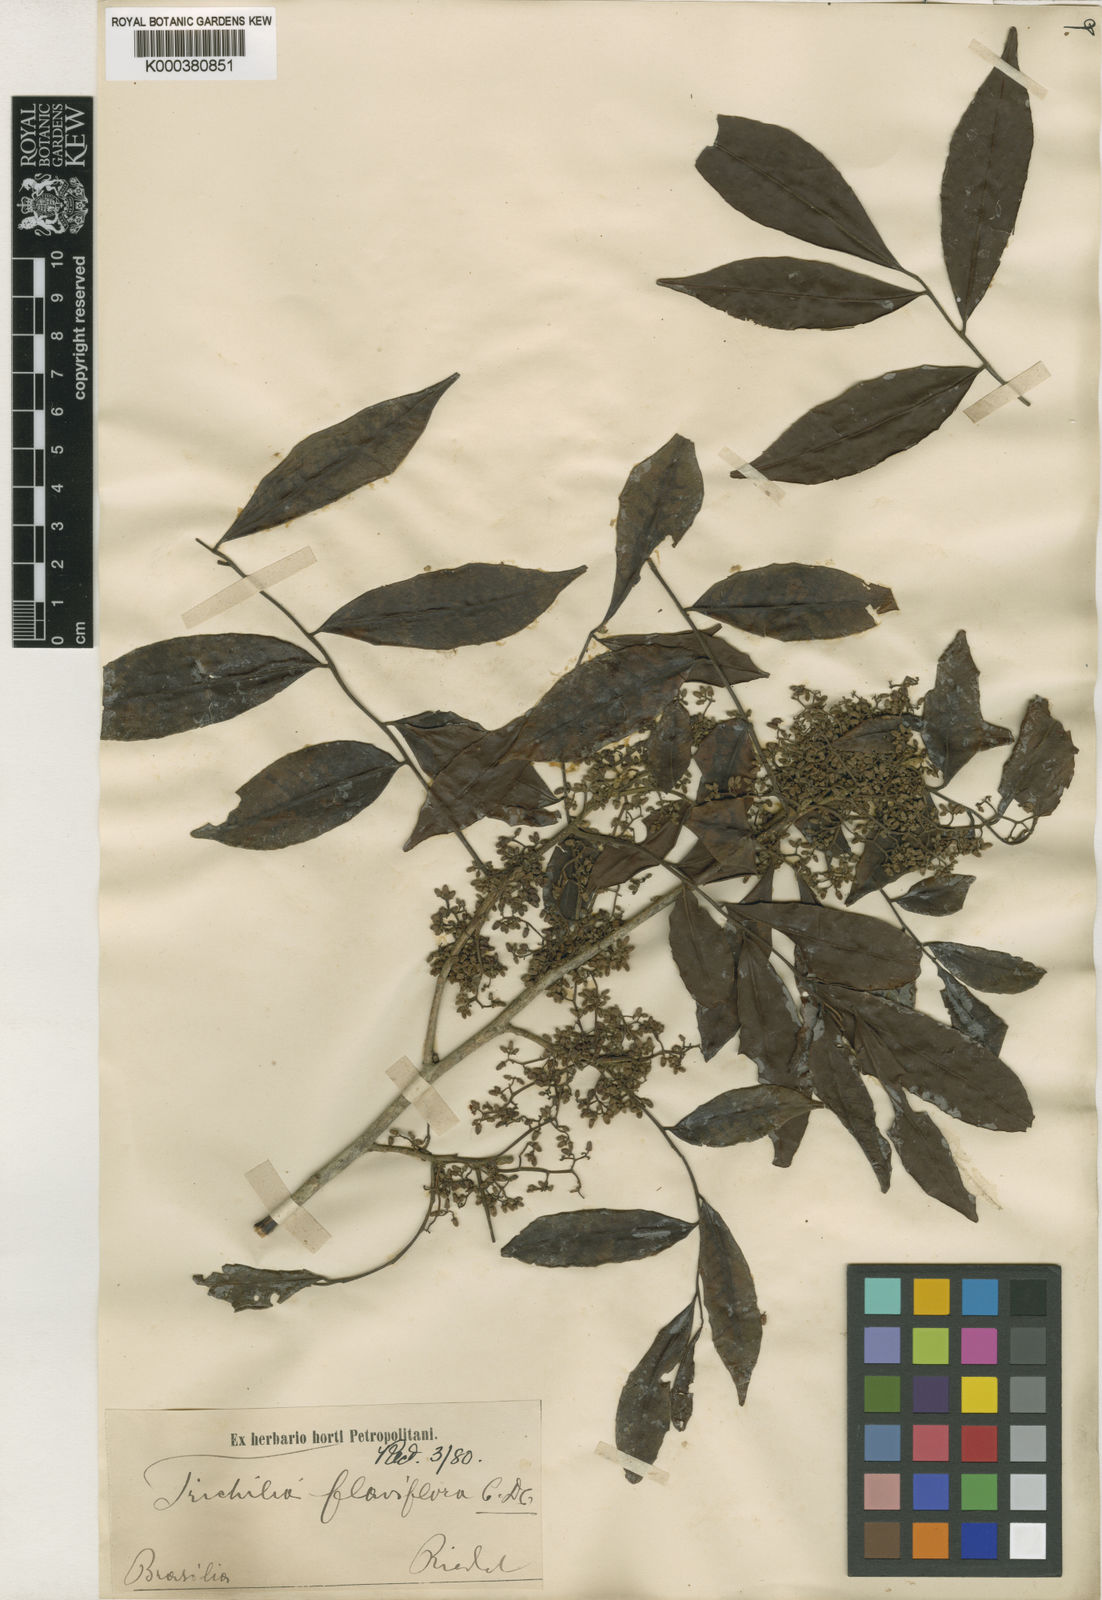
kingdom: Plantae
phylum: Tracheophyta
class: Magnoliopsida
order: Sapindales
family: Meliaceae
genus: Trichilia
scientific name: Trichilia catigua
